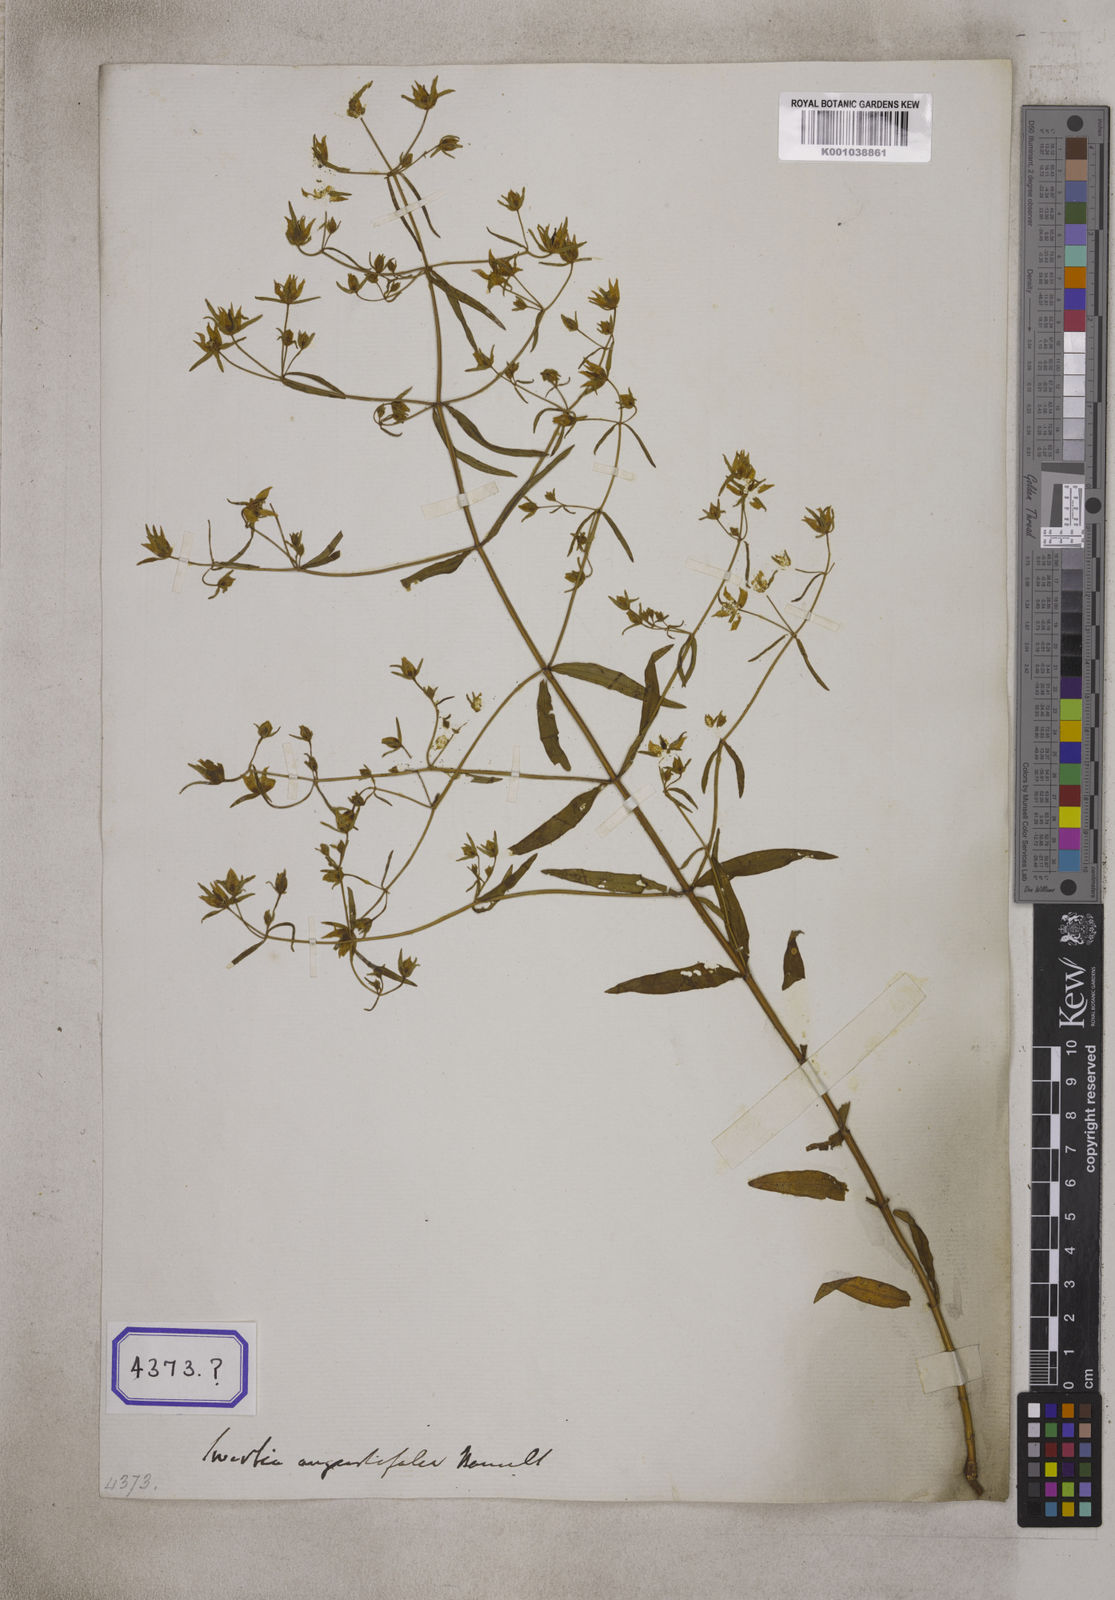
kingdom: Plantae
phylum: Tracheophyta
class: Magnoliopsida
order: Gentianales
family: Gentianaceae
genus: Swertia
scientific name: Swertia angustifolia
